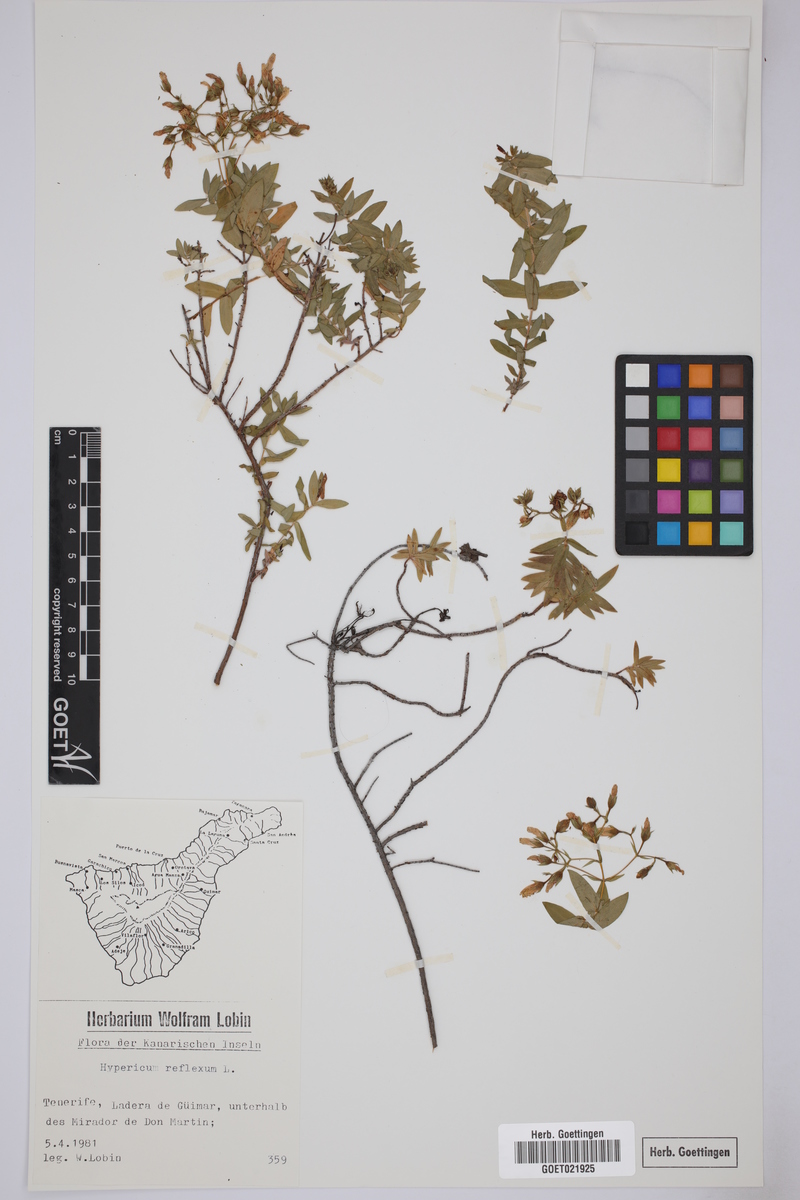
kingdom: Plantae
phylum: Tracheophyta
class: Magnoliopsida
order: Malpighiales
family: Hypericaceae
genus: Hypericum
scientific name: Hypericum reflexum
